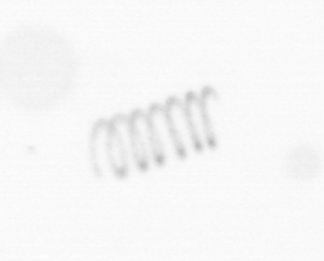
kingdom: Chromista
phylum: Ochrophyta
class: Bacillariophyceae
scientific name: Bacillariophyceae
